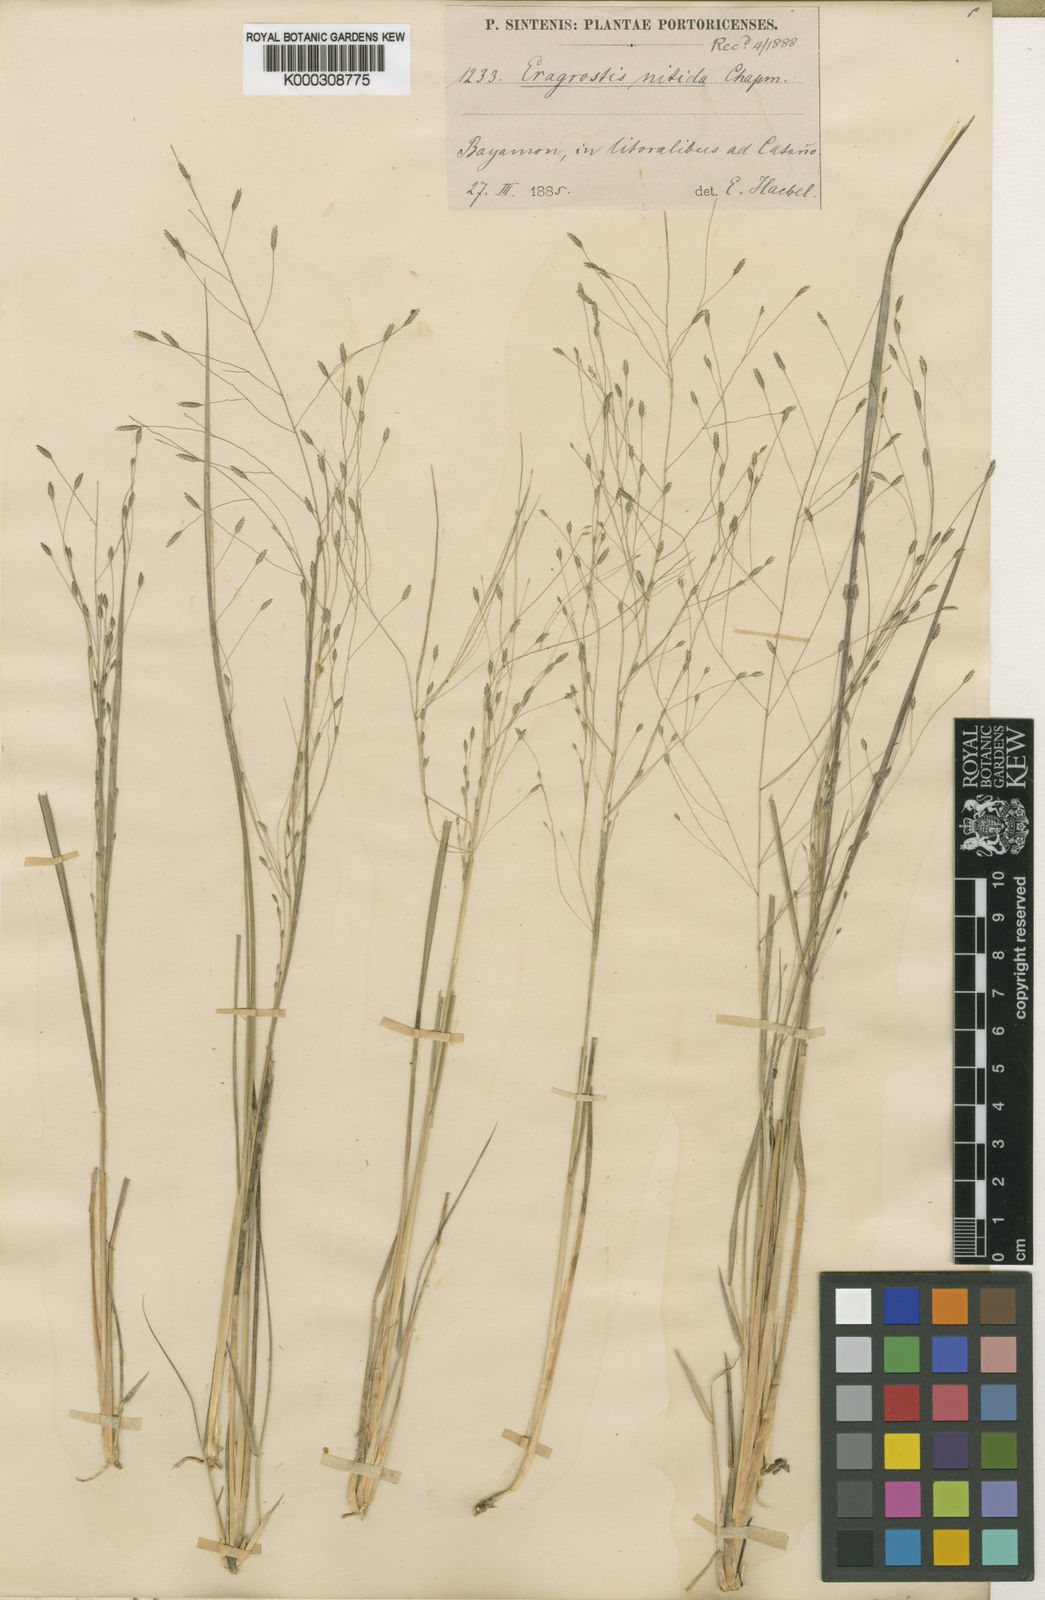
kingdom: Plantae
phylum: Tracheophyta
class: Liliopsida
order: Poales
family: Poaceae
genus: Eragrostis
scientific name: Eragrostis elliottii
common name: Elliott's love grass
